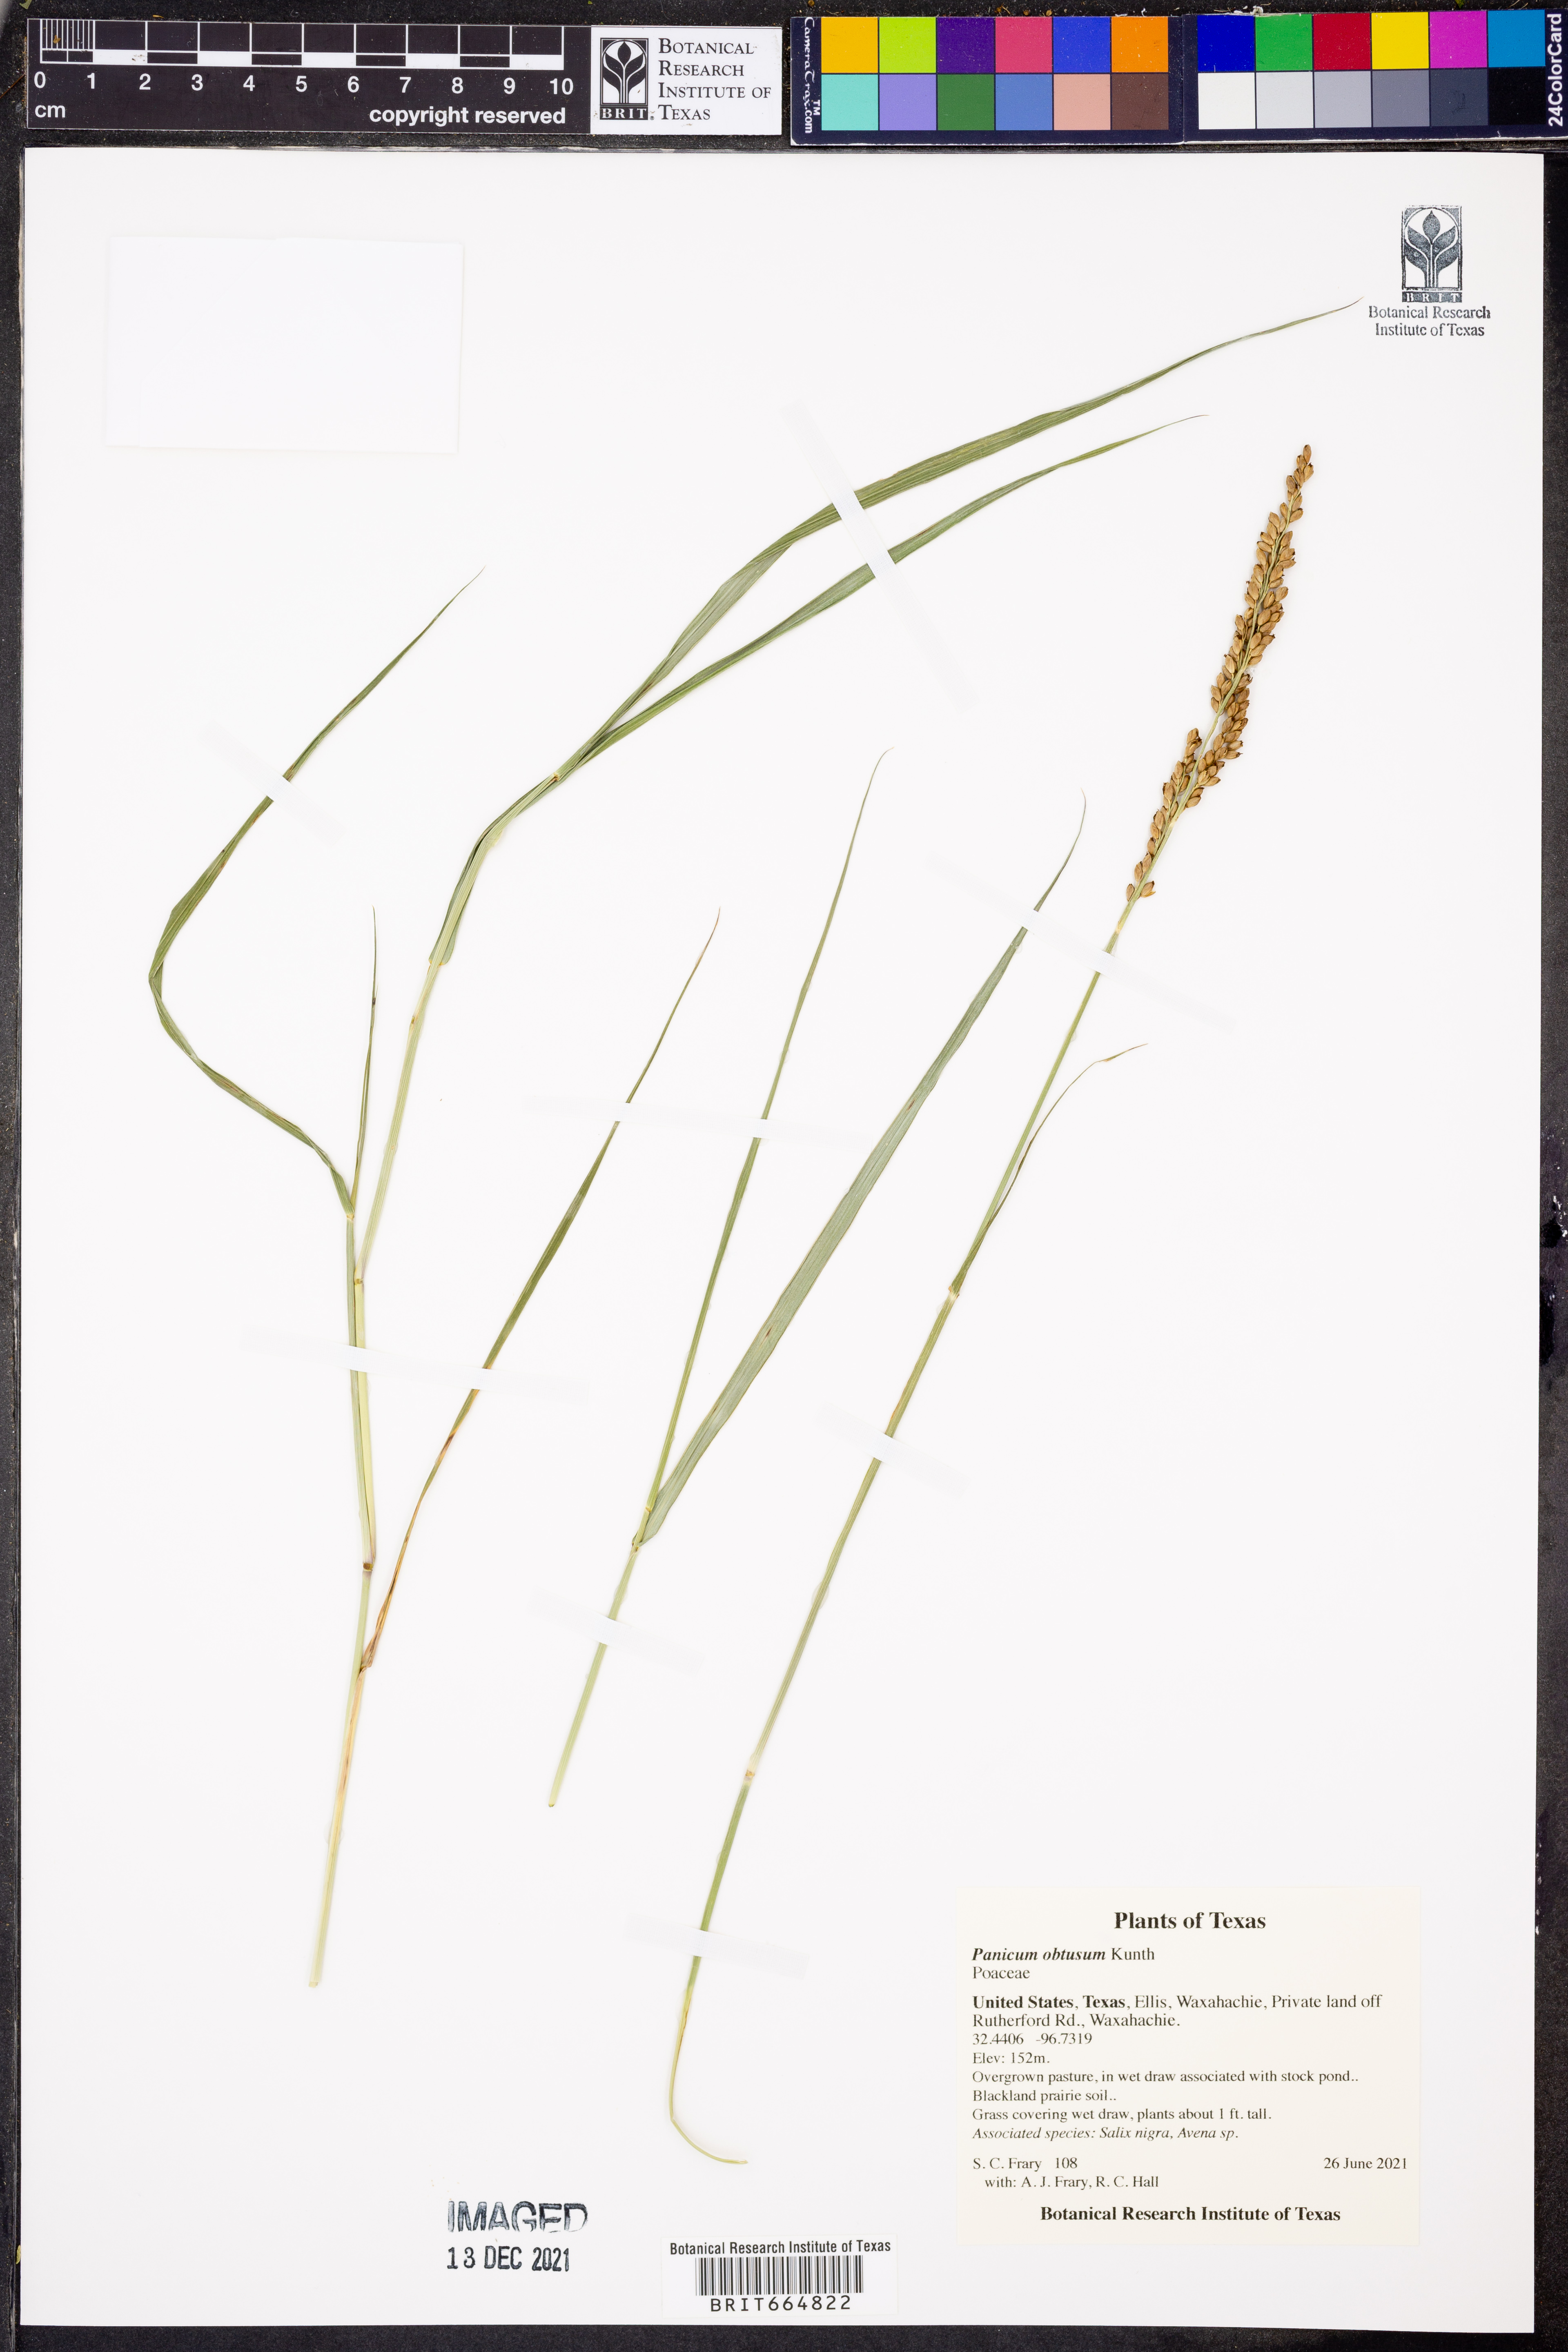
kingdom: Plantae
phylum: Tracheophyta
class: Liliopsida
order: Poales
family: Poaceae
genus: Hopia
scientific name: Hopia obtusa
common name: Vine-mesquite
